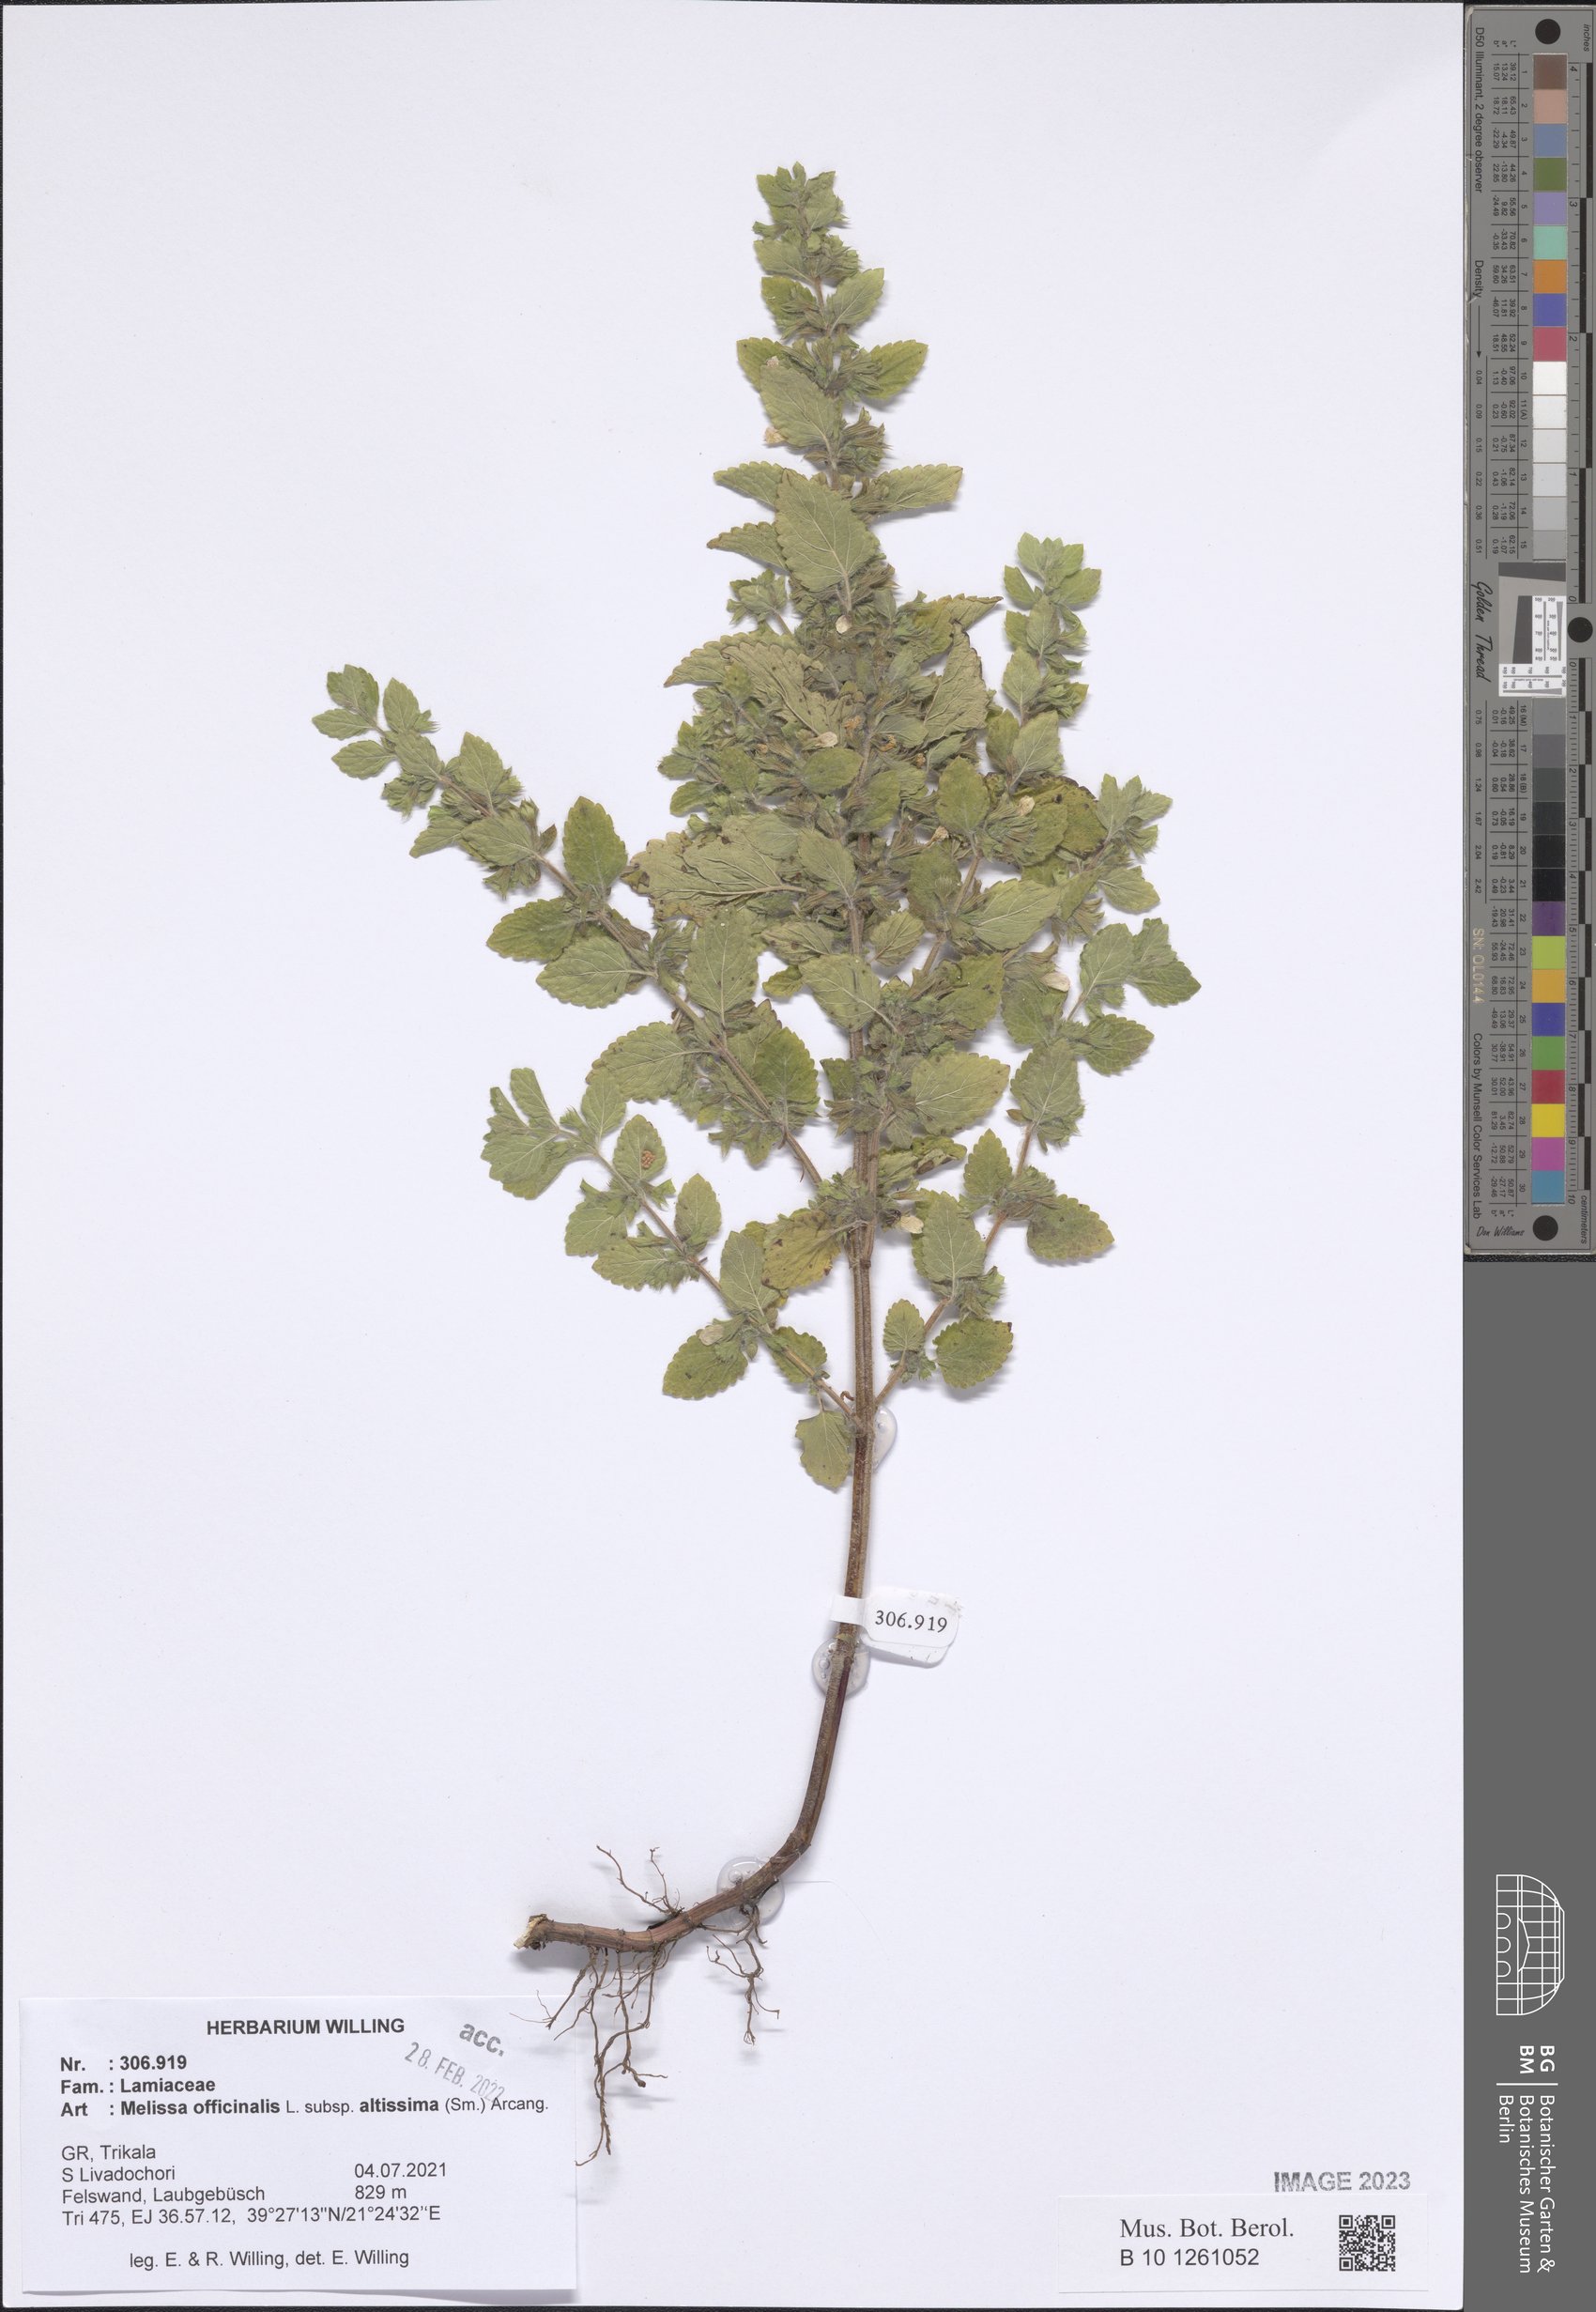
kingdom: Plantae
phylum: Tracheophyta
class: Magnoliopsida
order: Lamiales
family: Lamiaceae
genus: Melissa
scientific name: Melissa officinalis
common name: Balm
